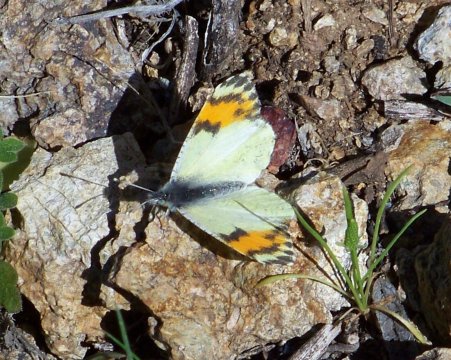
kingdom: Animalia
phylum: Arthropoda
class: Insecta
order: Lepidoptera
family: Pieridae
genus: Anthocharis
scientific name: Anthocharis sara
